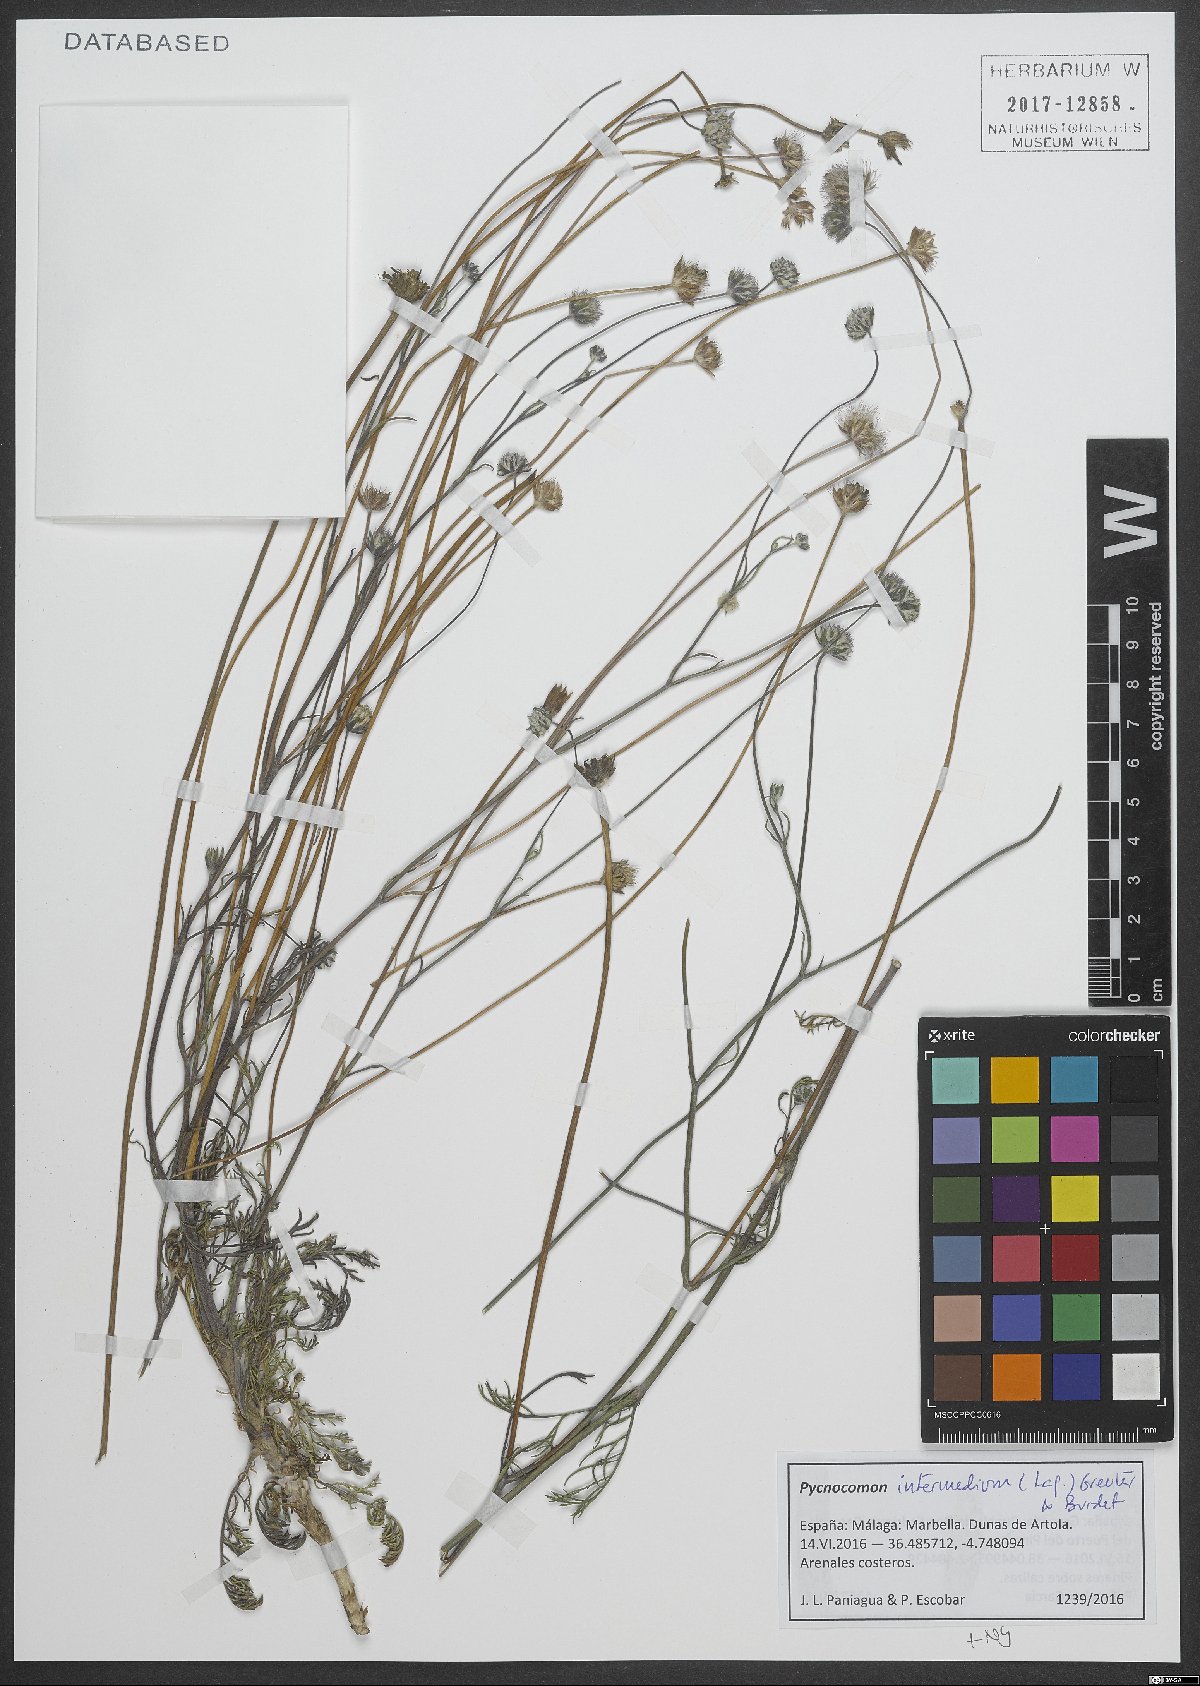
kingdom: Plantae
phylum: Tracheophyta
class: Magnoliopsida
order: Dipsacales
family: Caprifoliaceae
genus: Pycnocomon
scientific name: Pycnocomon intermedium
